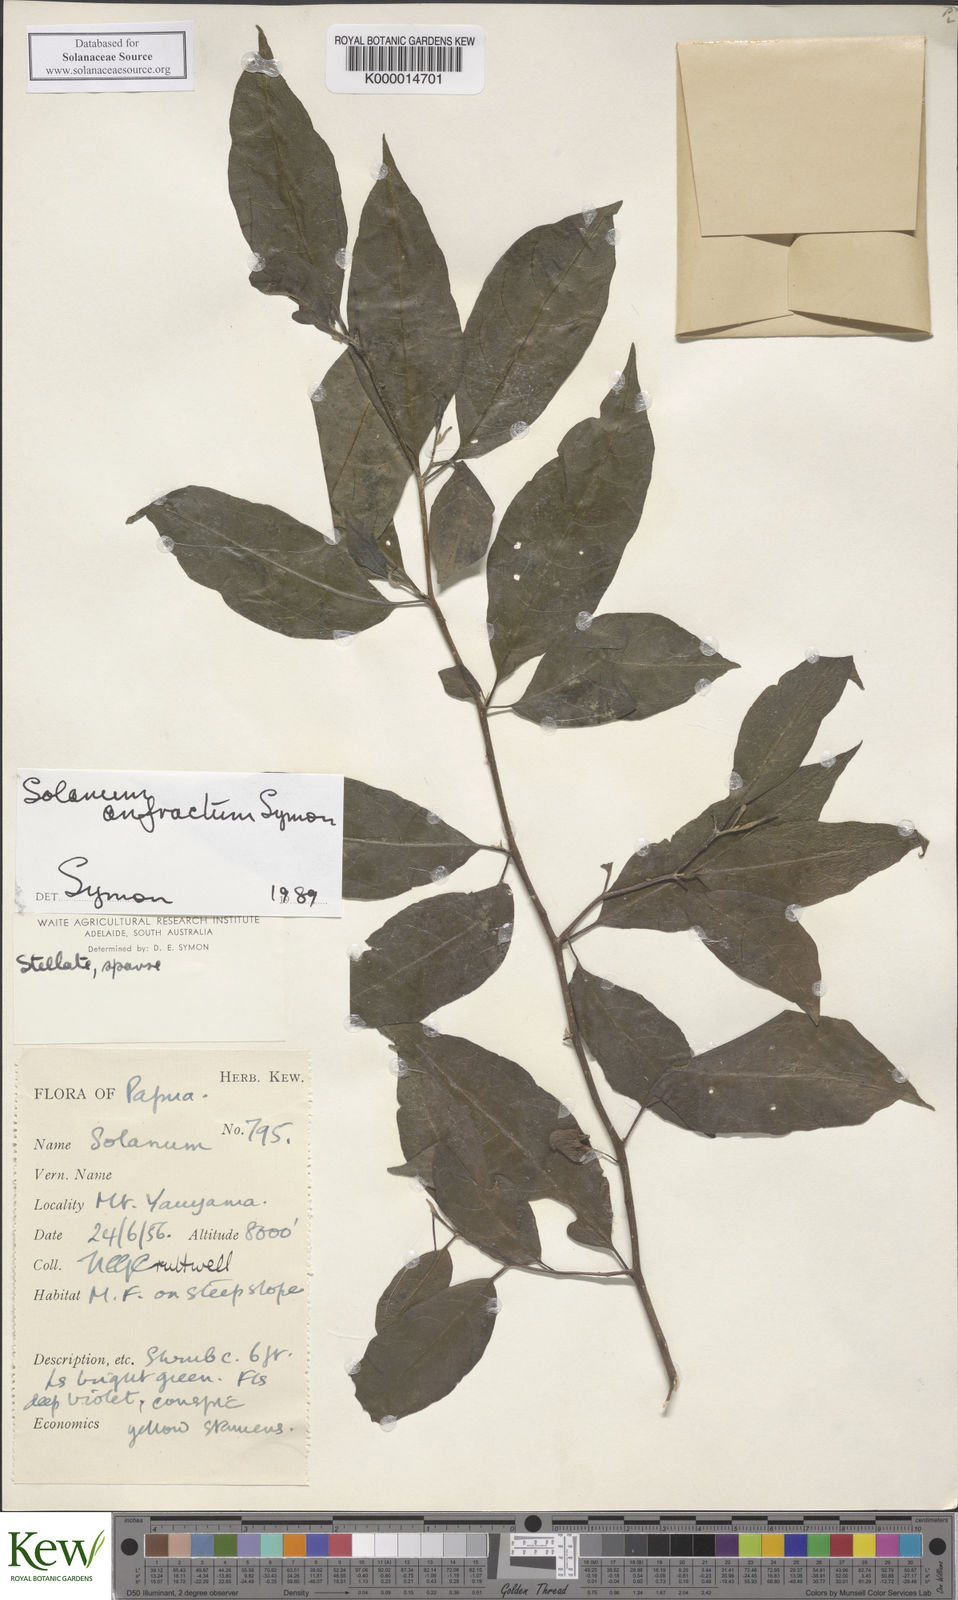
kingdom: Plantae
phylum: Tracheophyta
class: Magnoliopsida
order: Solanales
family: Solanaceae
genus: Solanum
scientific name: Solanum anfractum
